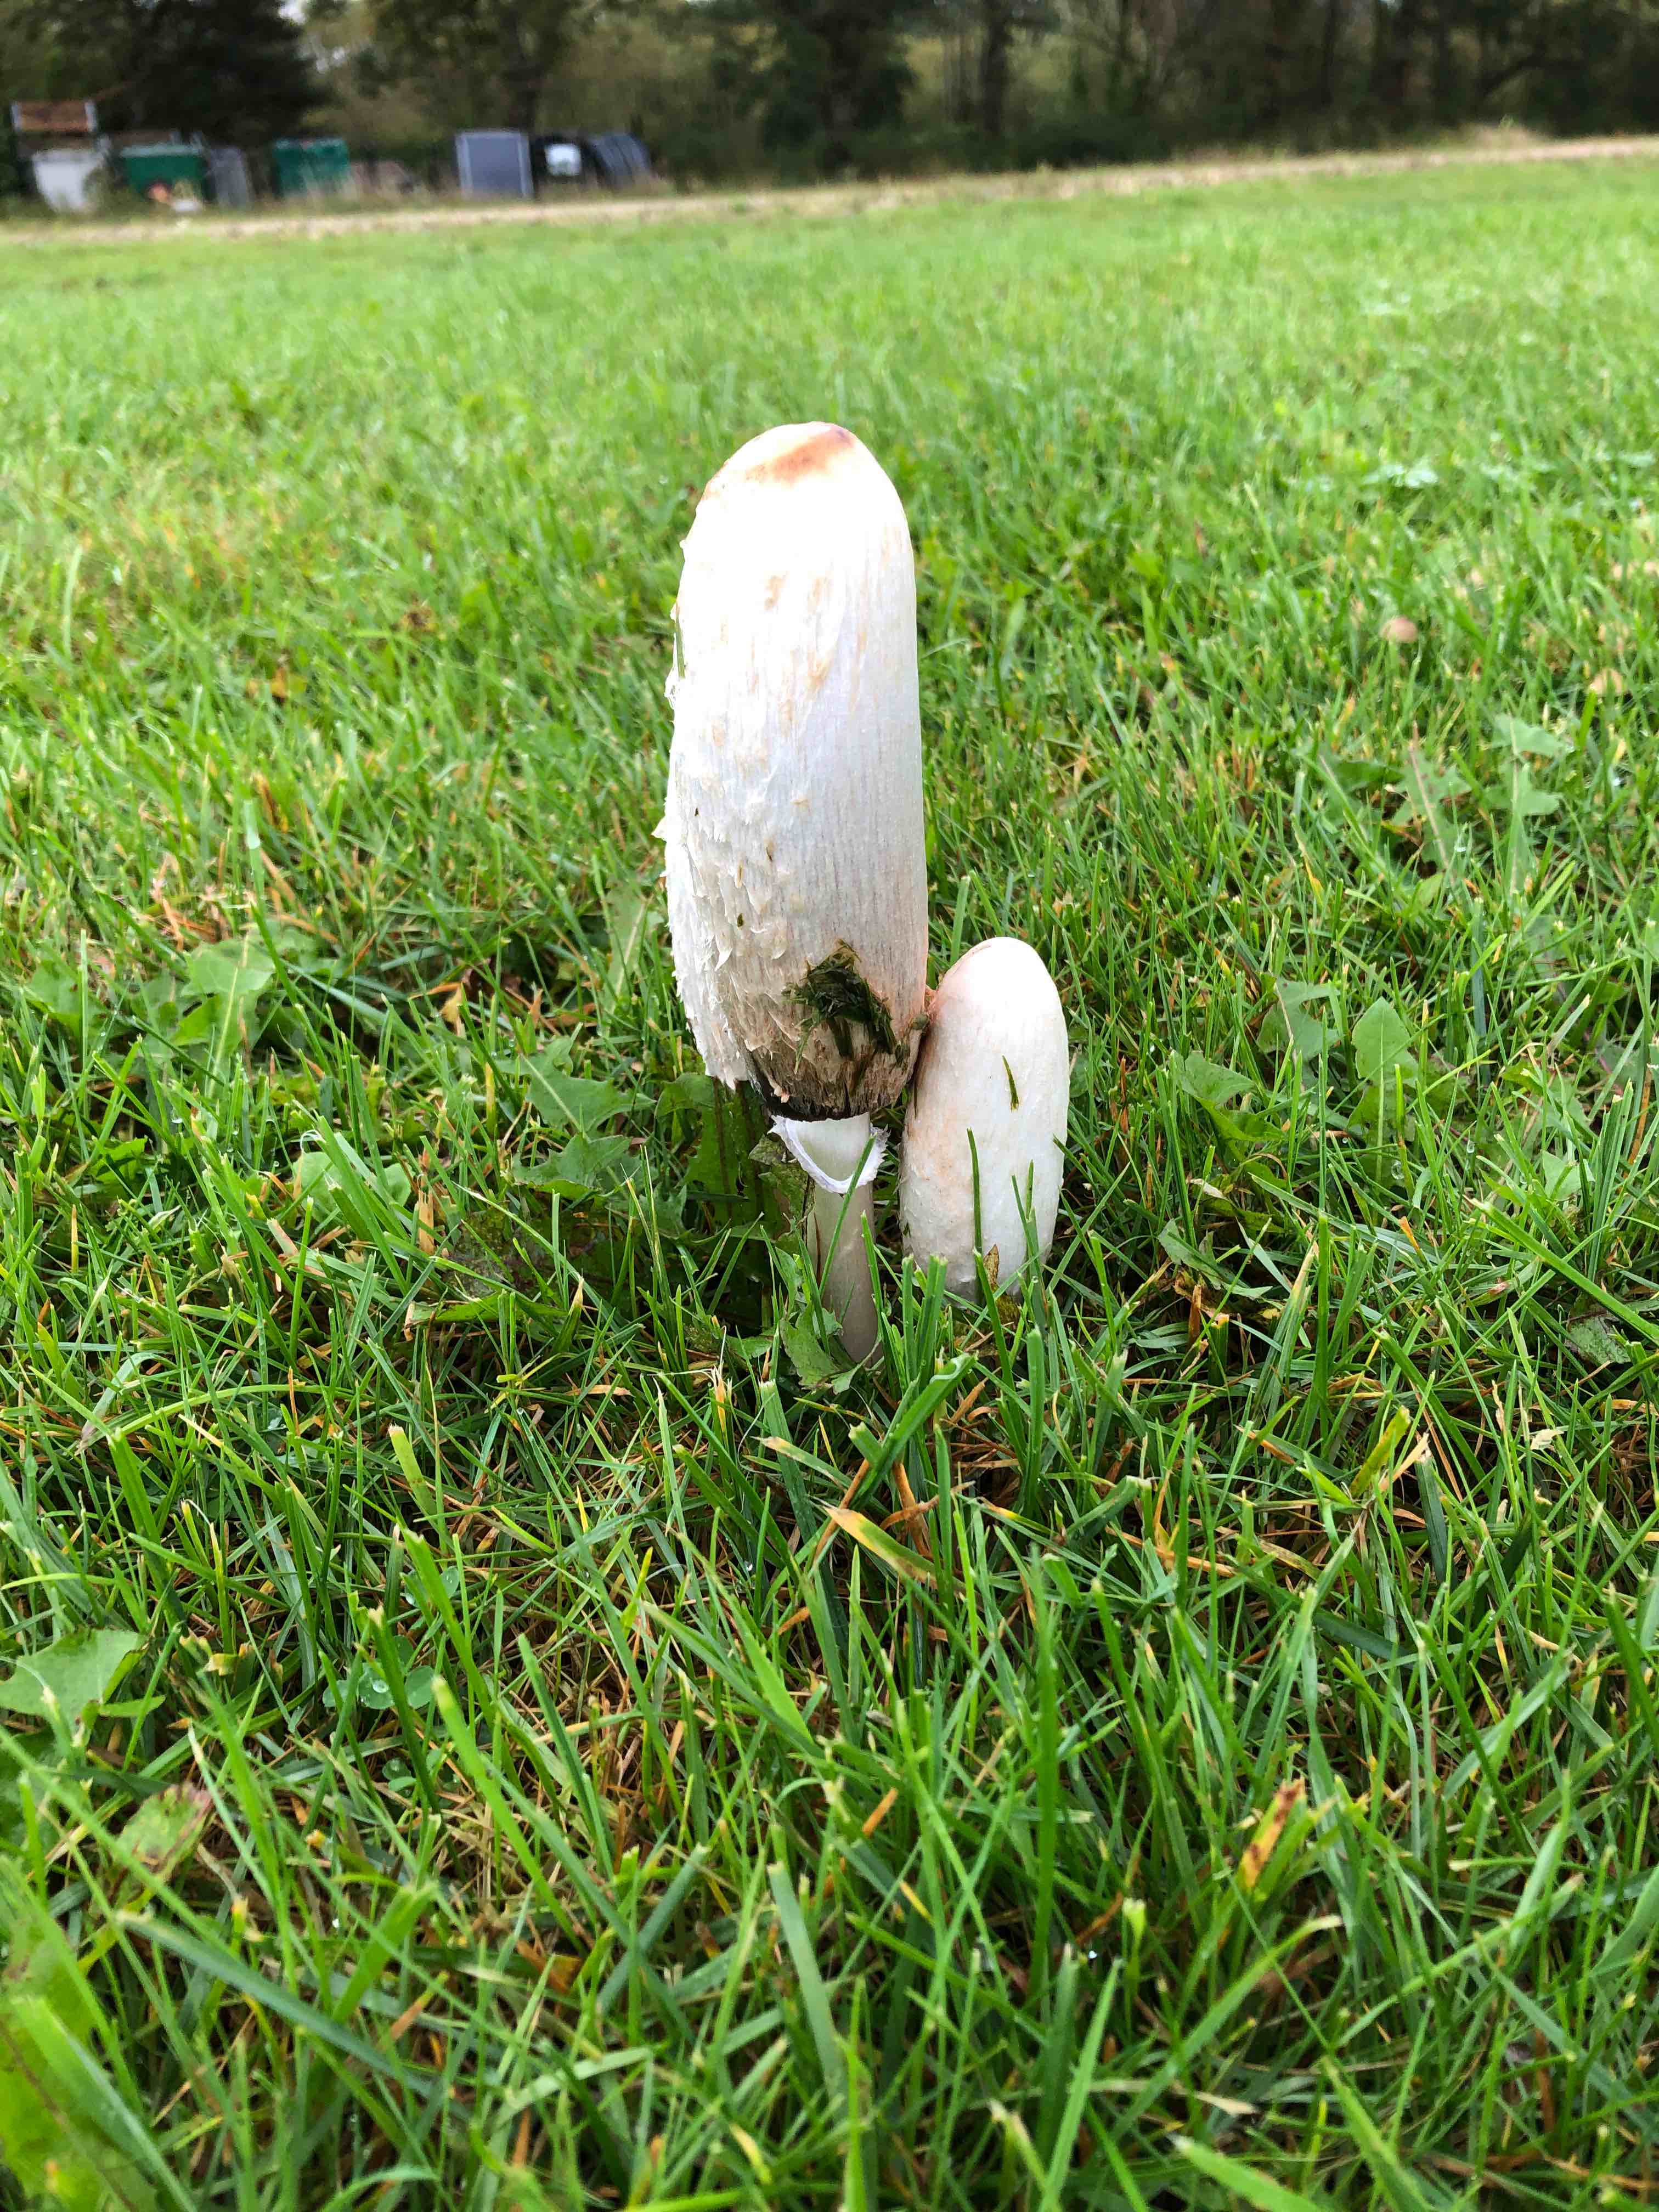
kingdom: Fungi
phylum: Basidiomycota
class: Agaricomycetes
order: Agaricales
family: Agaricaceae
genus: Coprinus
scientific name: Coprinus comatus
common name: stor parykhat
